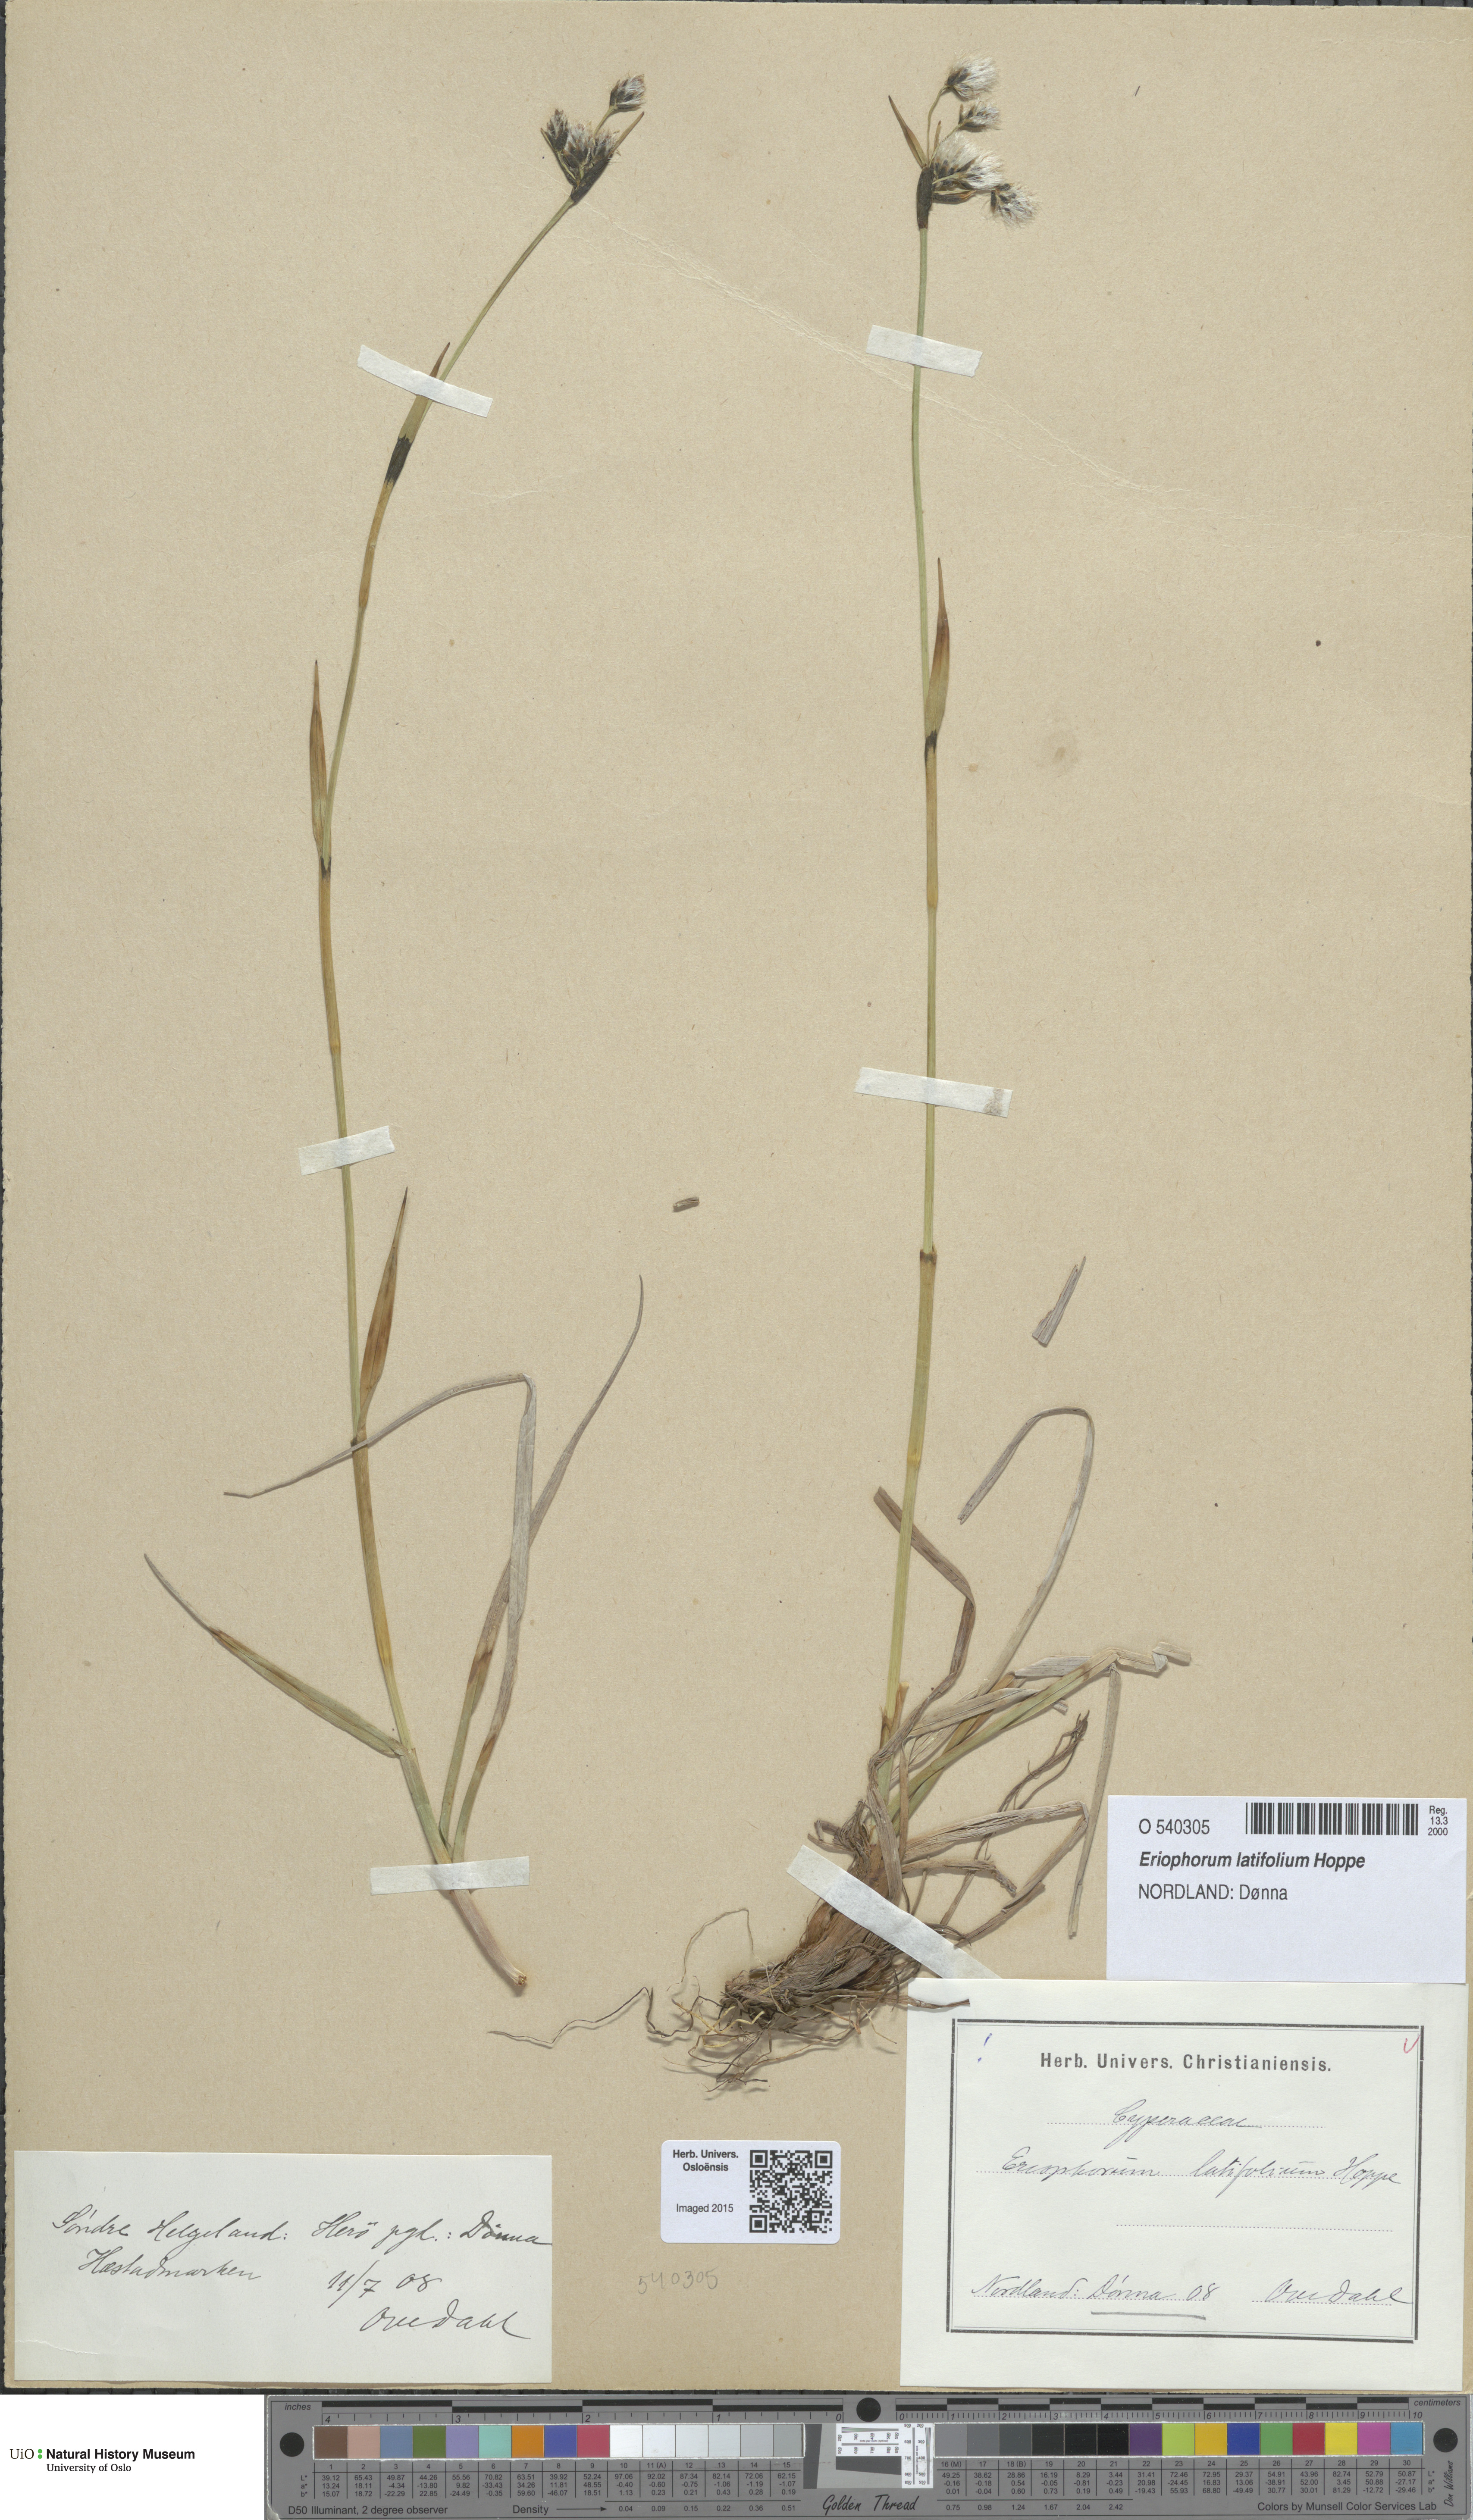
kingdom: Plantae
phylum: Tracheophyta
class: Liliopsida
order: Poales
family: Cyperaceae
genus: Eriophorum
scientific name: Eriophorum latifolium
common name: Broad-leaved cottongrass
